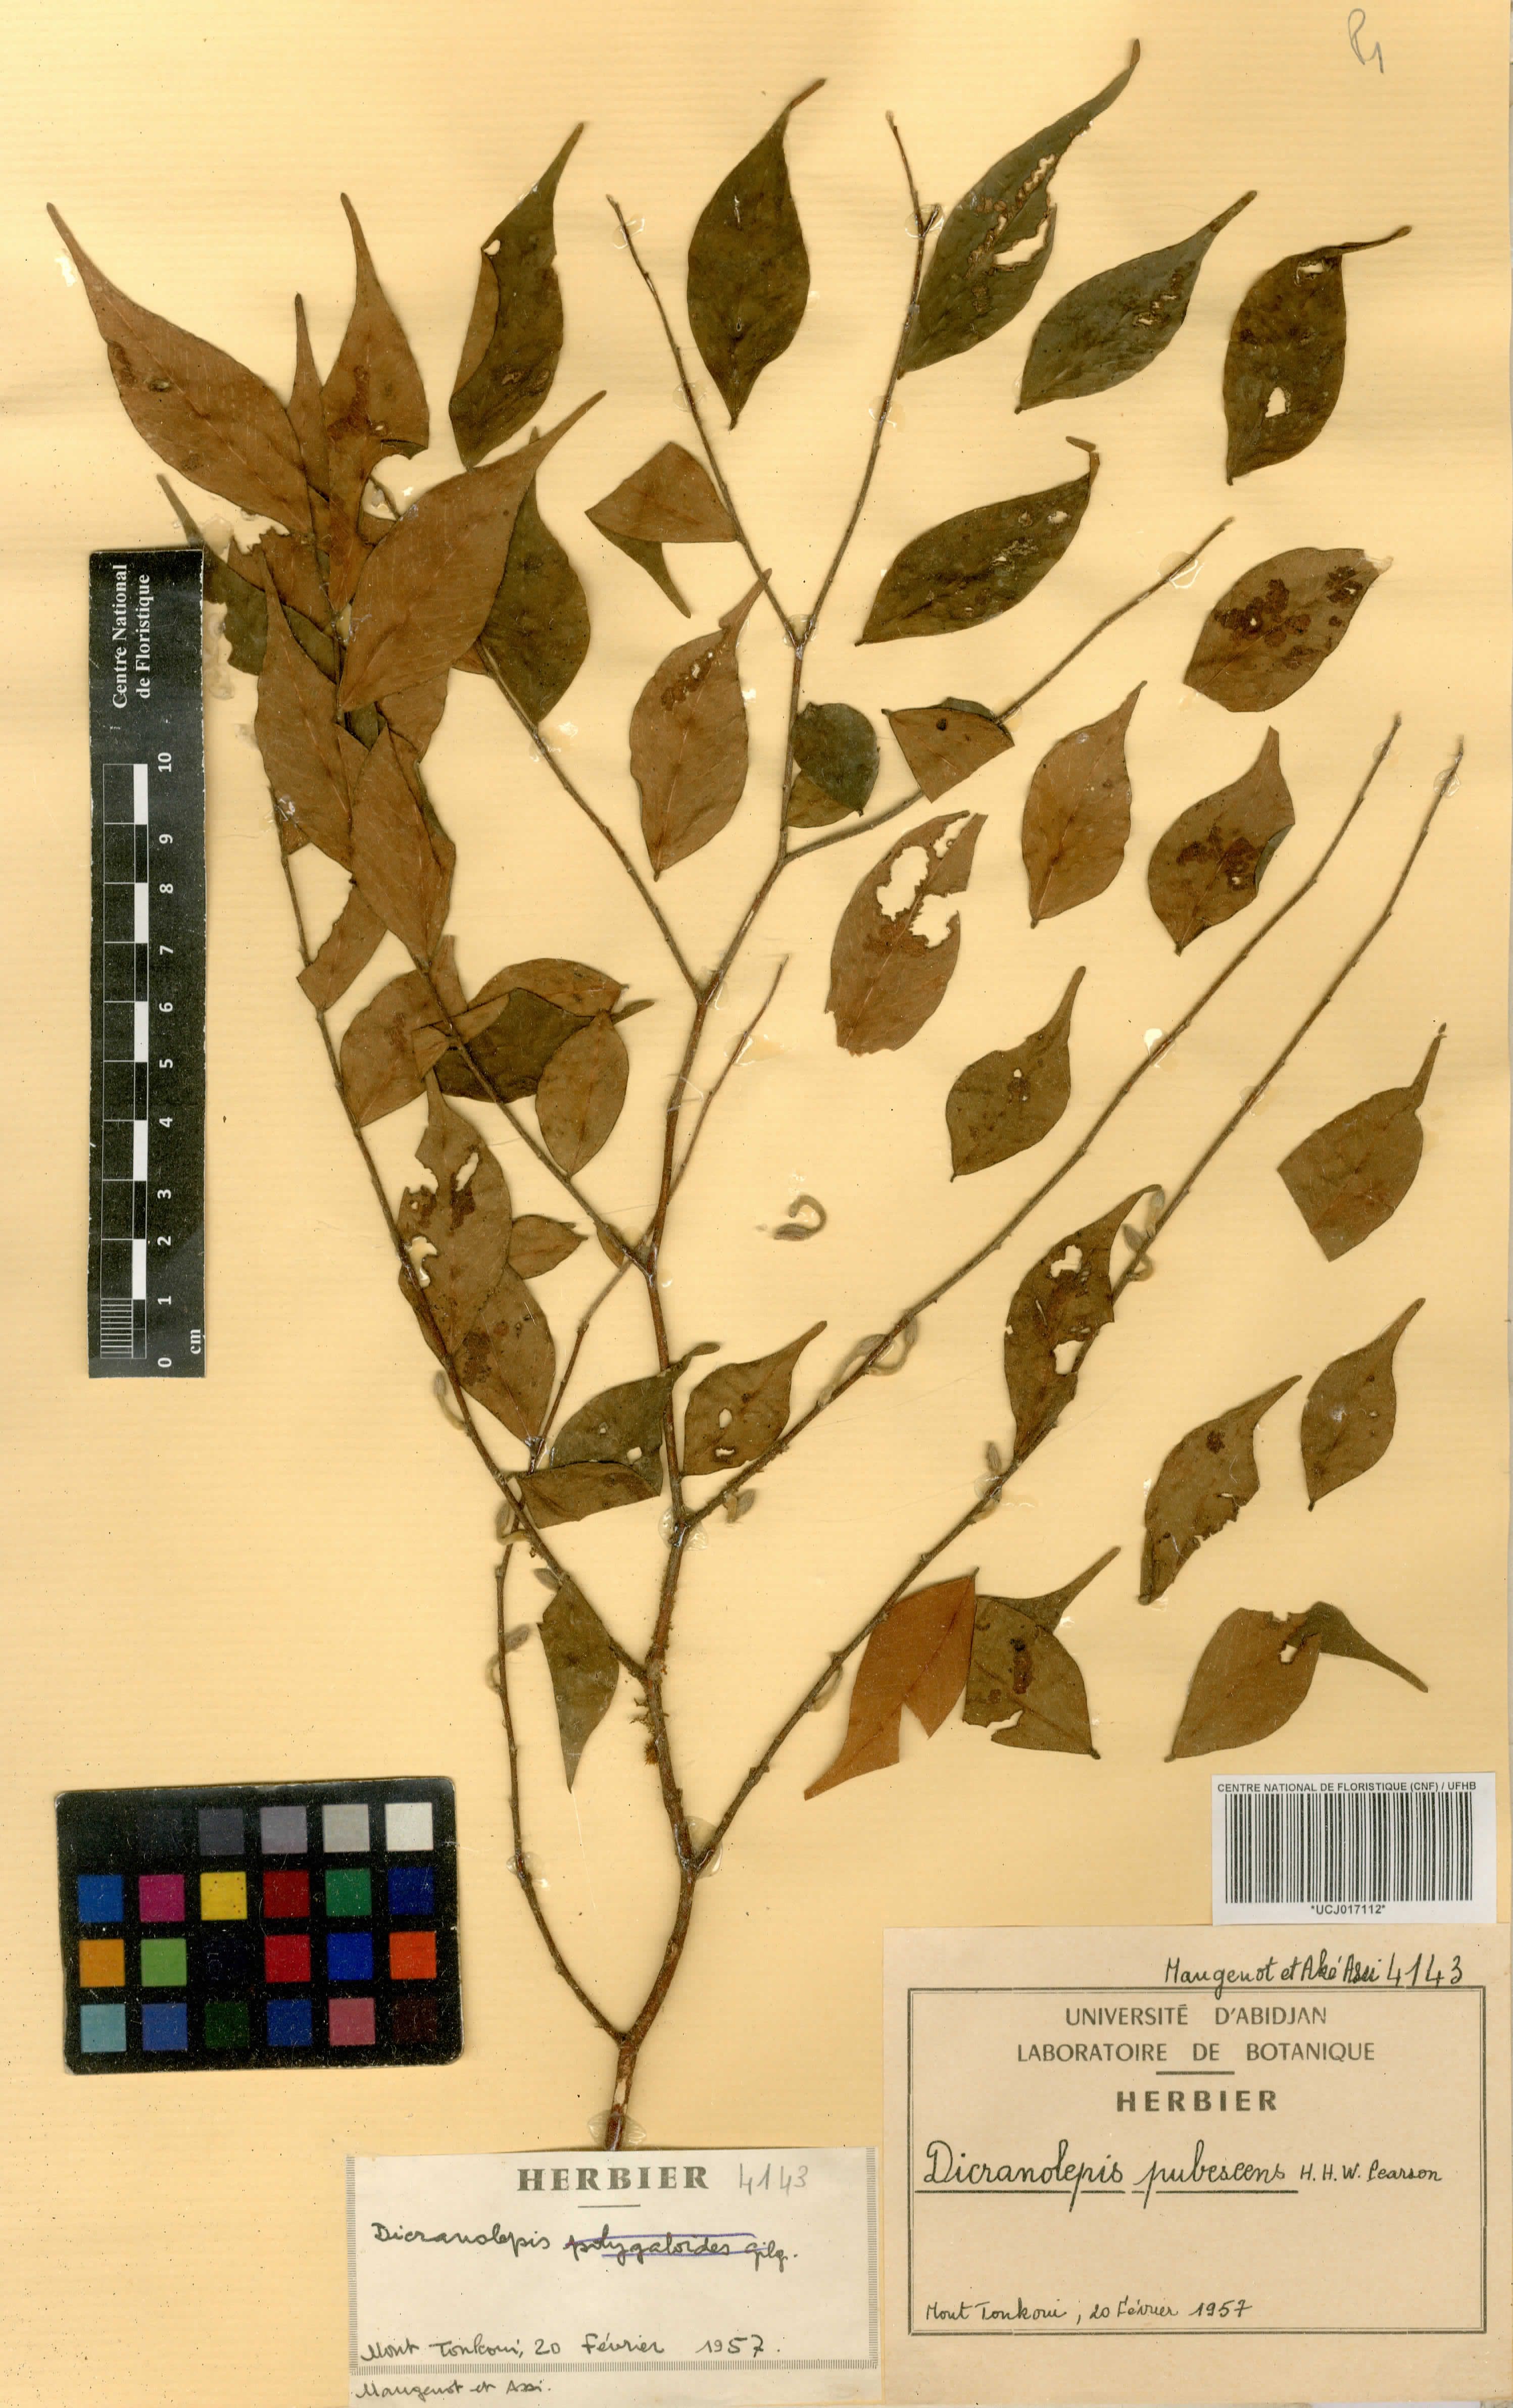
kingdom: Plantae
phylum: Tracheophyta
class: Magnoliopsida
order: Malvales
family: Thymelaeaceae
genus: Dicranolepis
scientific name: Dicranolepis pubescens
